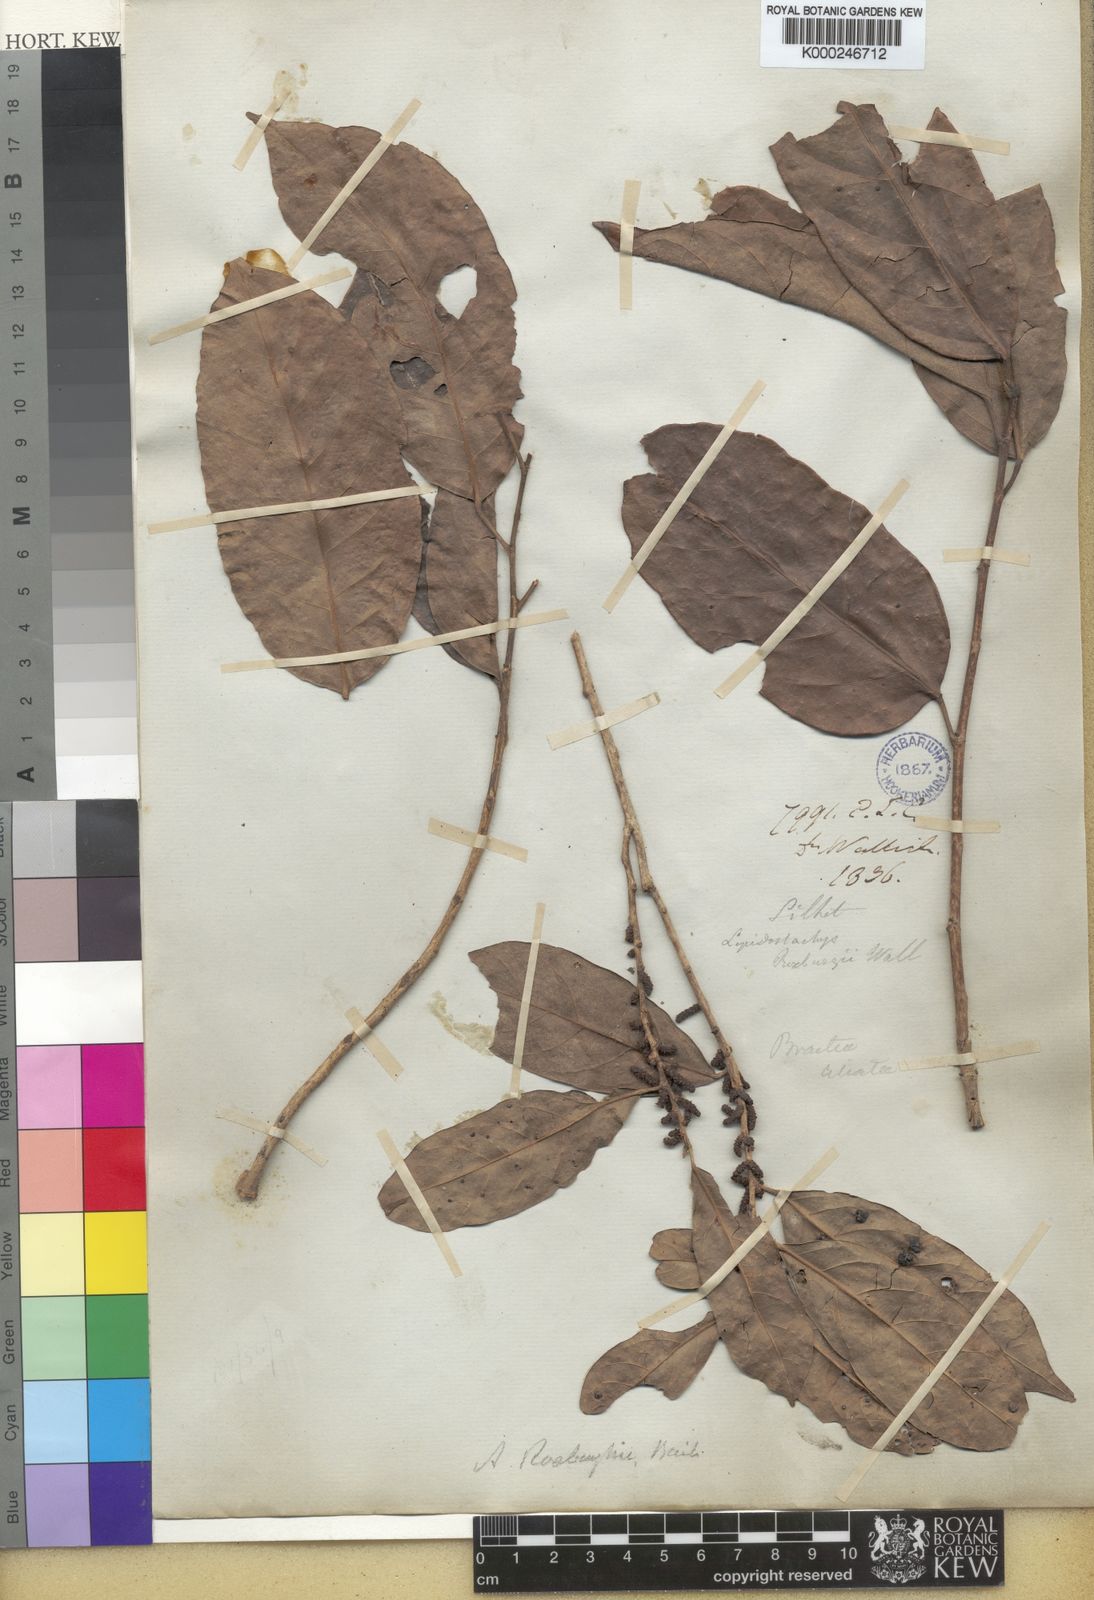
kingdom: Plantae
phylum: Tracheophyta
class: Magnoliopsida
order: Malpighiales
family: Phyllanthaceae
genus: Aporosa
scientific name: Aporosa octandra
